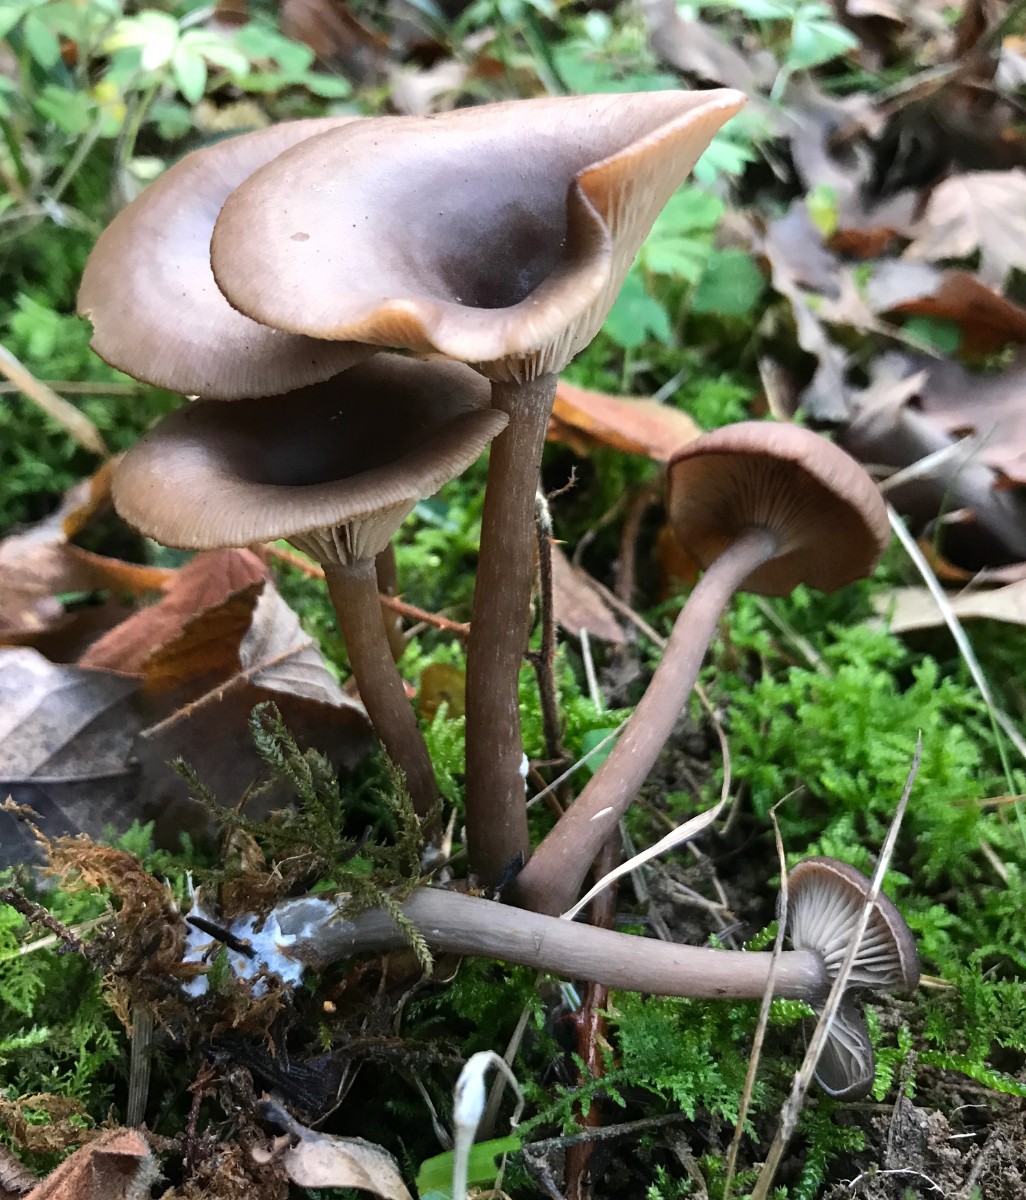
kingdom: Fungi
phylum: Basidiomycota
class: Agaricomycetes
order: Agaricales
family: Pseudoclitocybaceae
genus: Pseudoclitocybe
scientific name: Pseudoclitocybe cyathiformis
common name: almindelig bægertragthat
